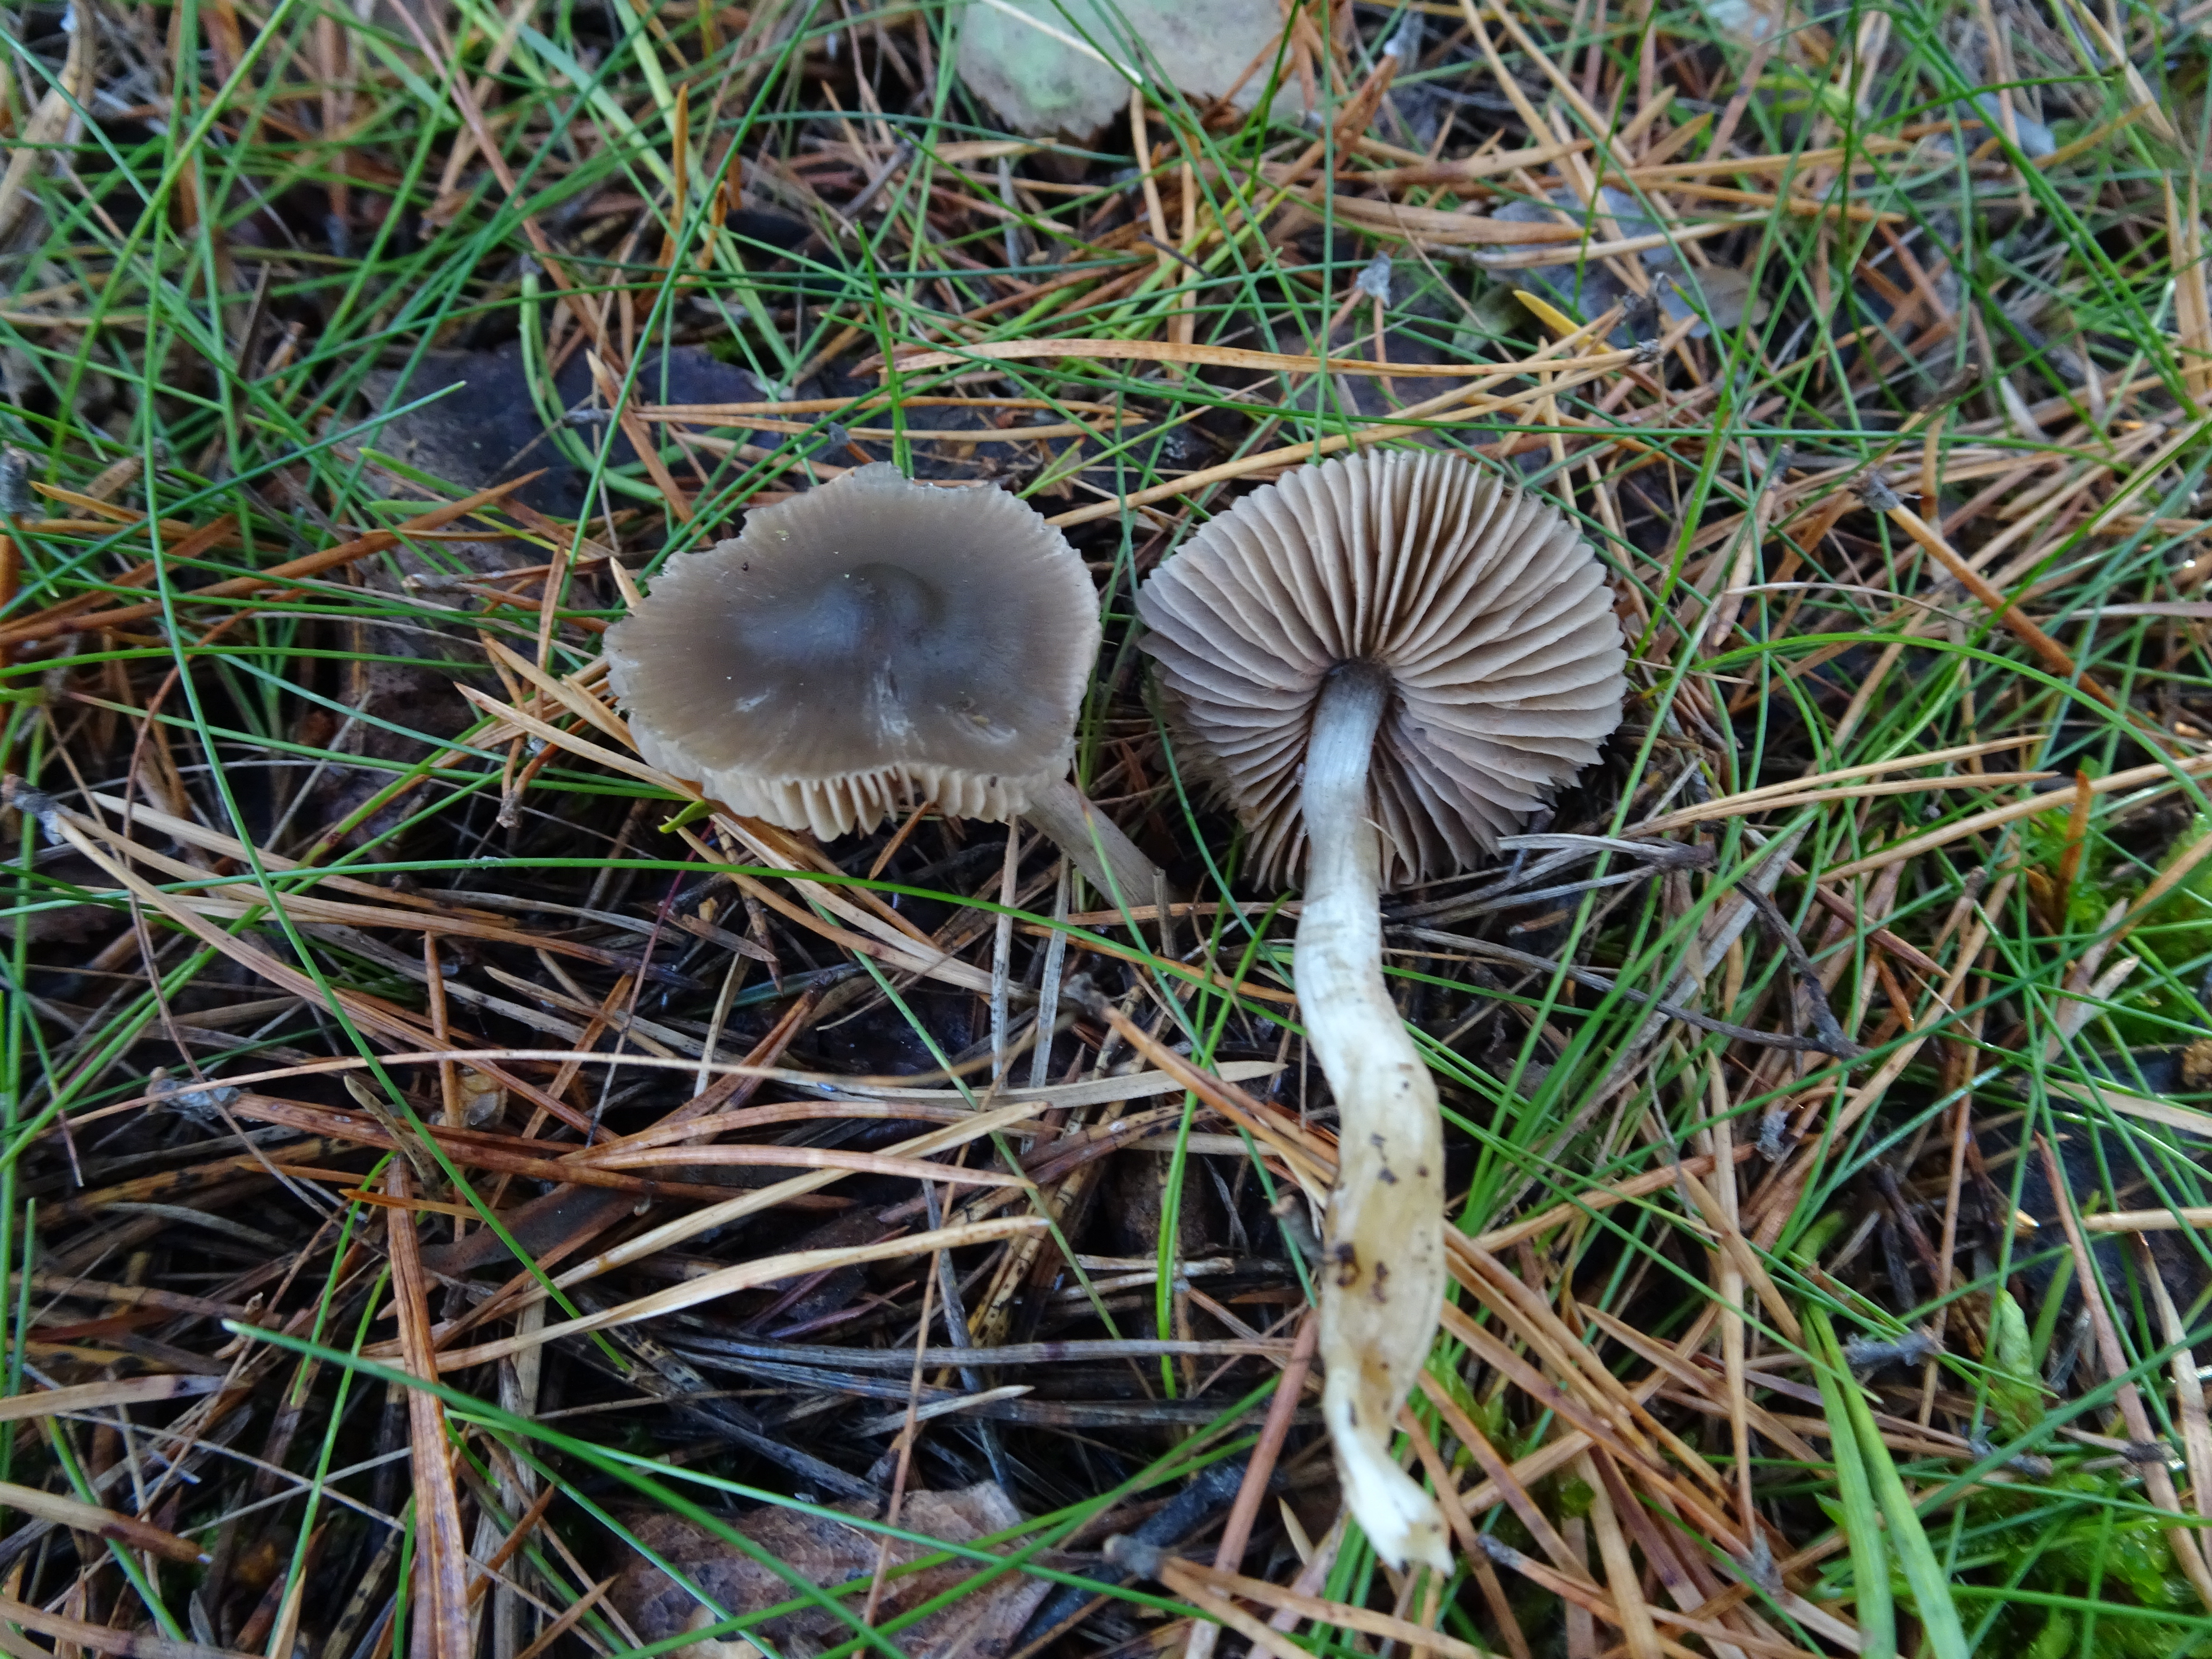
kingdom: Fungi
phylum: Basidiomycota
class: Agaricomycetes
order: Agaricales
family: Entolomataceae
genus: Entoloma
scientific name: Entoloma
